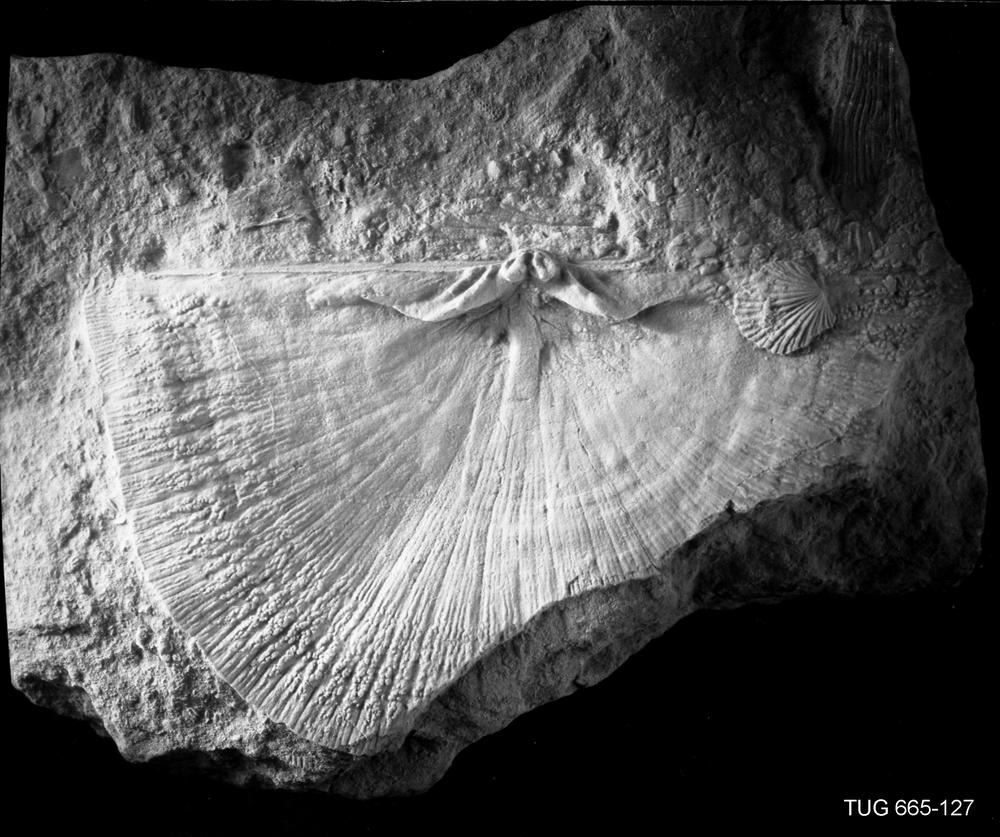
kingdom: Animalia
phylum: Brachiopoda
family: Strophomenidae
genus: Strophomena
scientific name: Strophomena Orthis asmusi
